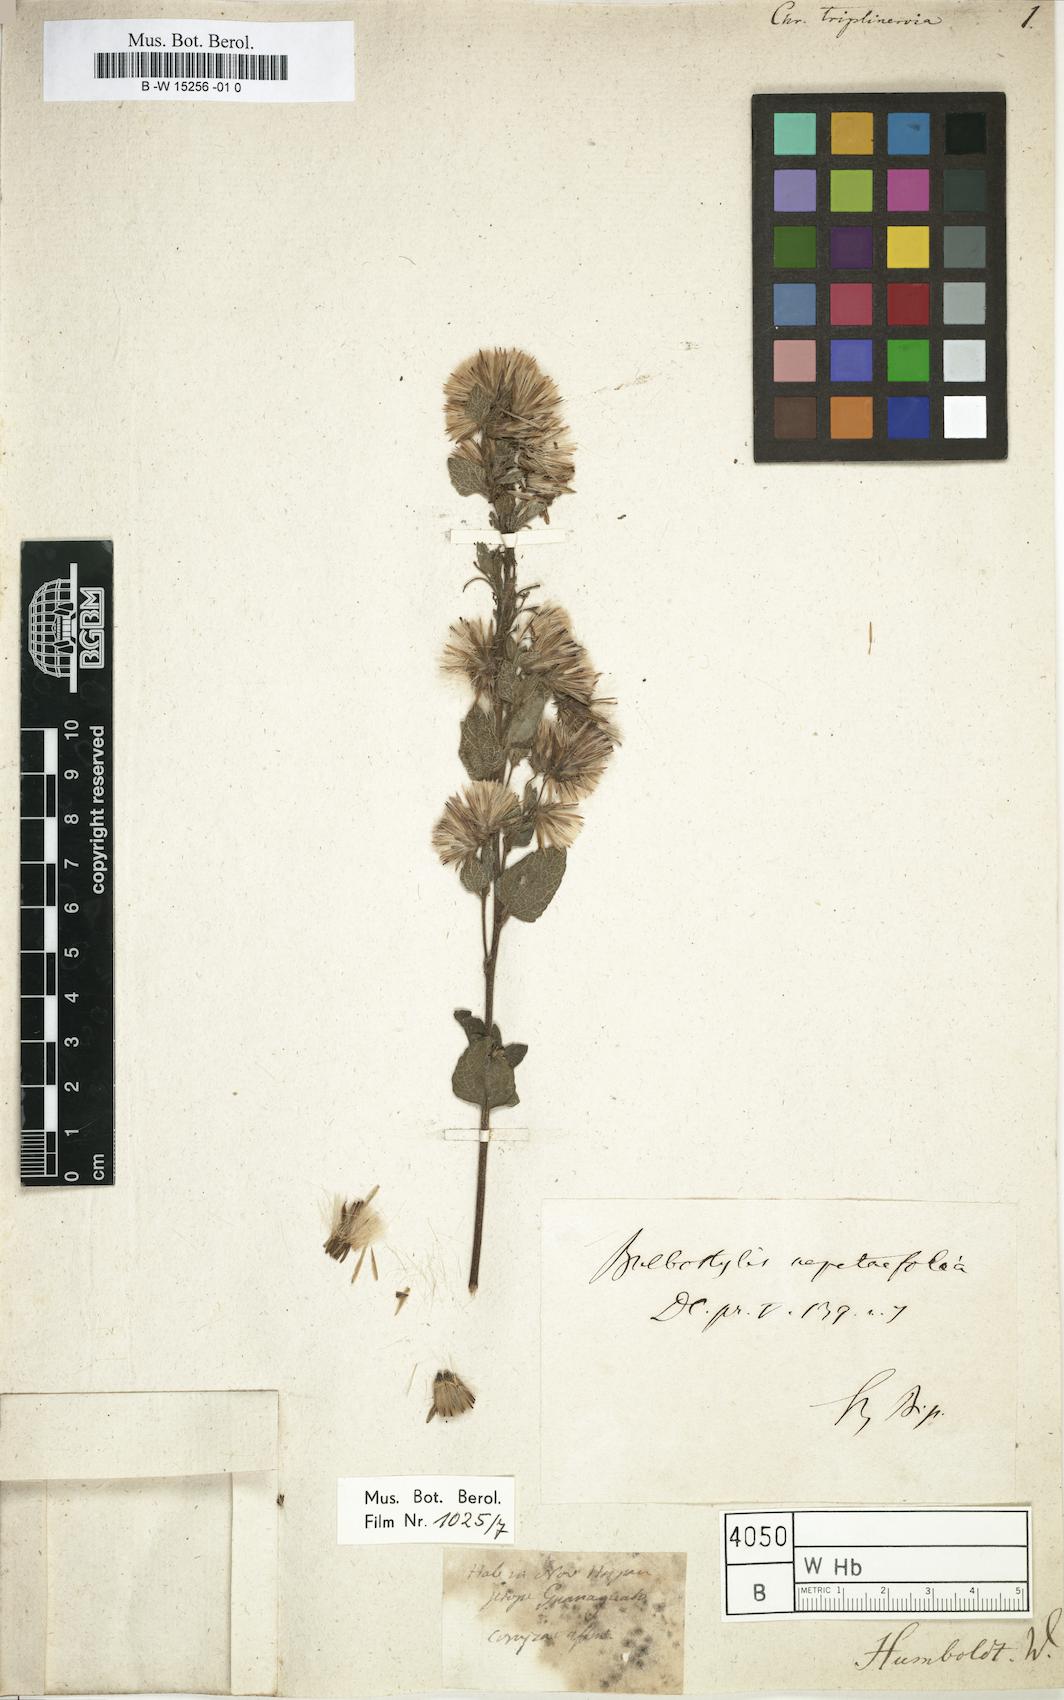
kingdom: Plantae
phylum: Tracheophyta
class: Magnoliopsida
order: Asterales
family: Asteraceae
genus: Chrysocoma
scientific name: Chrysocoma
